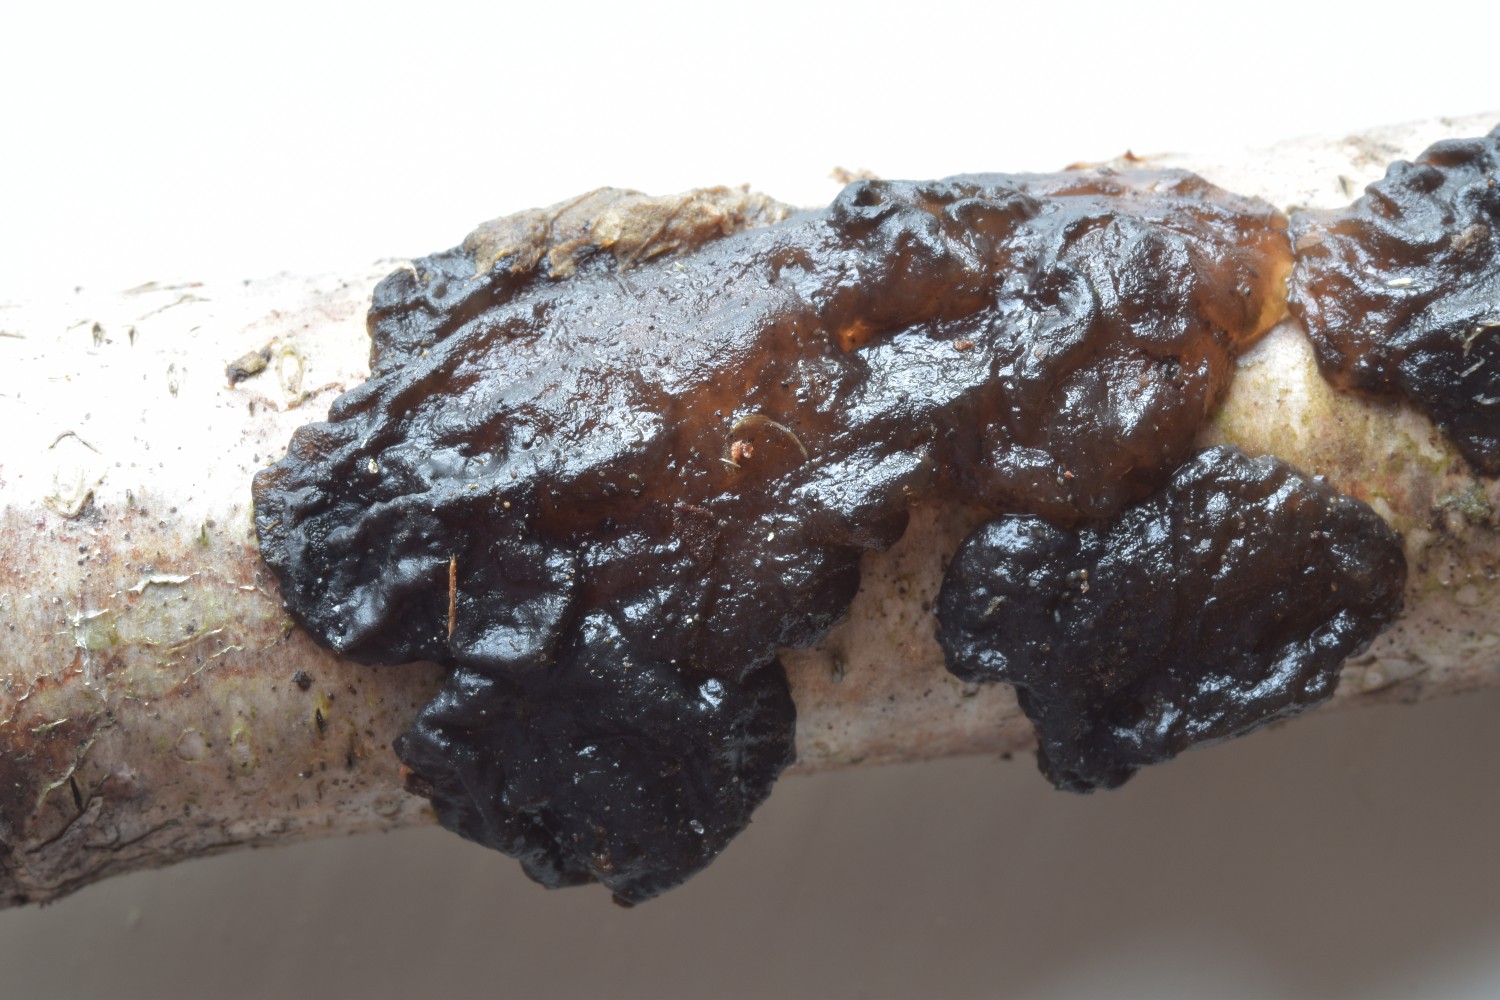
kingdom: Fungi
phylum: Basidiomycota
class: Agaricomycetes
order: Auriculariales
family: Auriculariaceae
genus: Exidia
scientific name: Exidia nigricans
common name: almindelig bævretop
